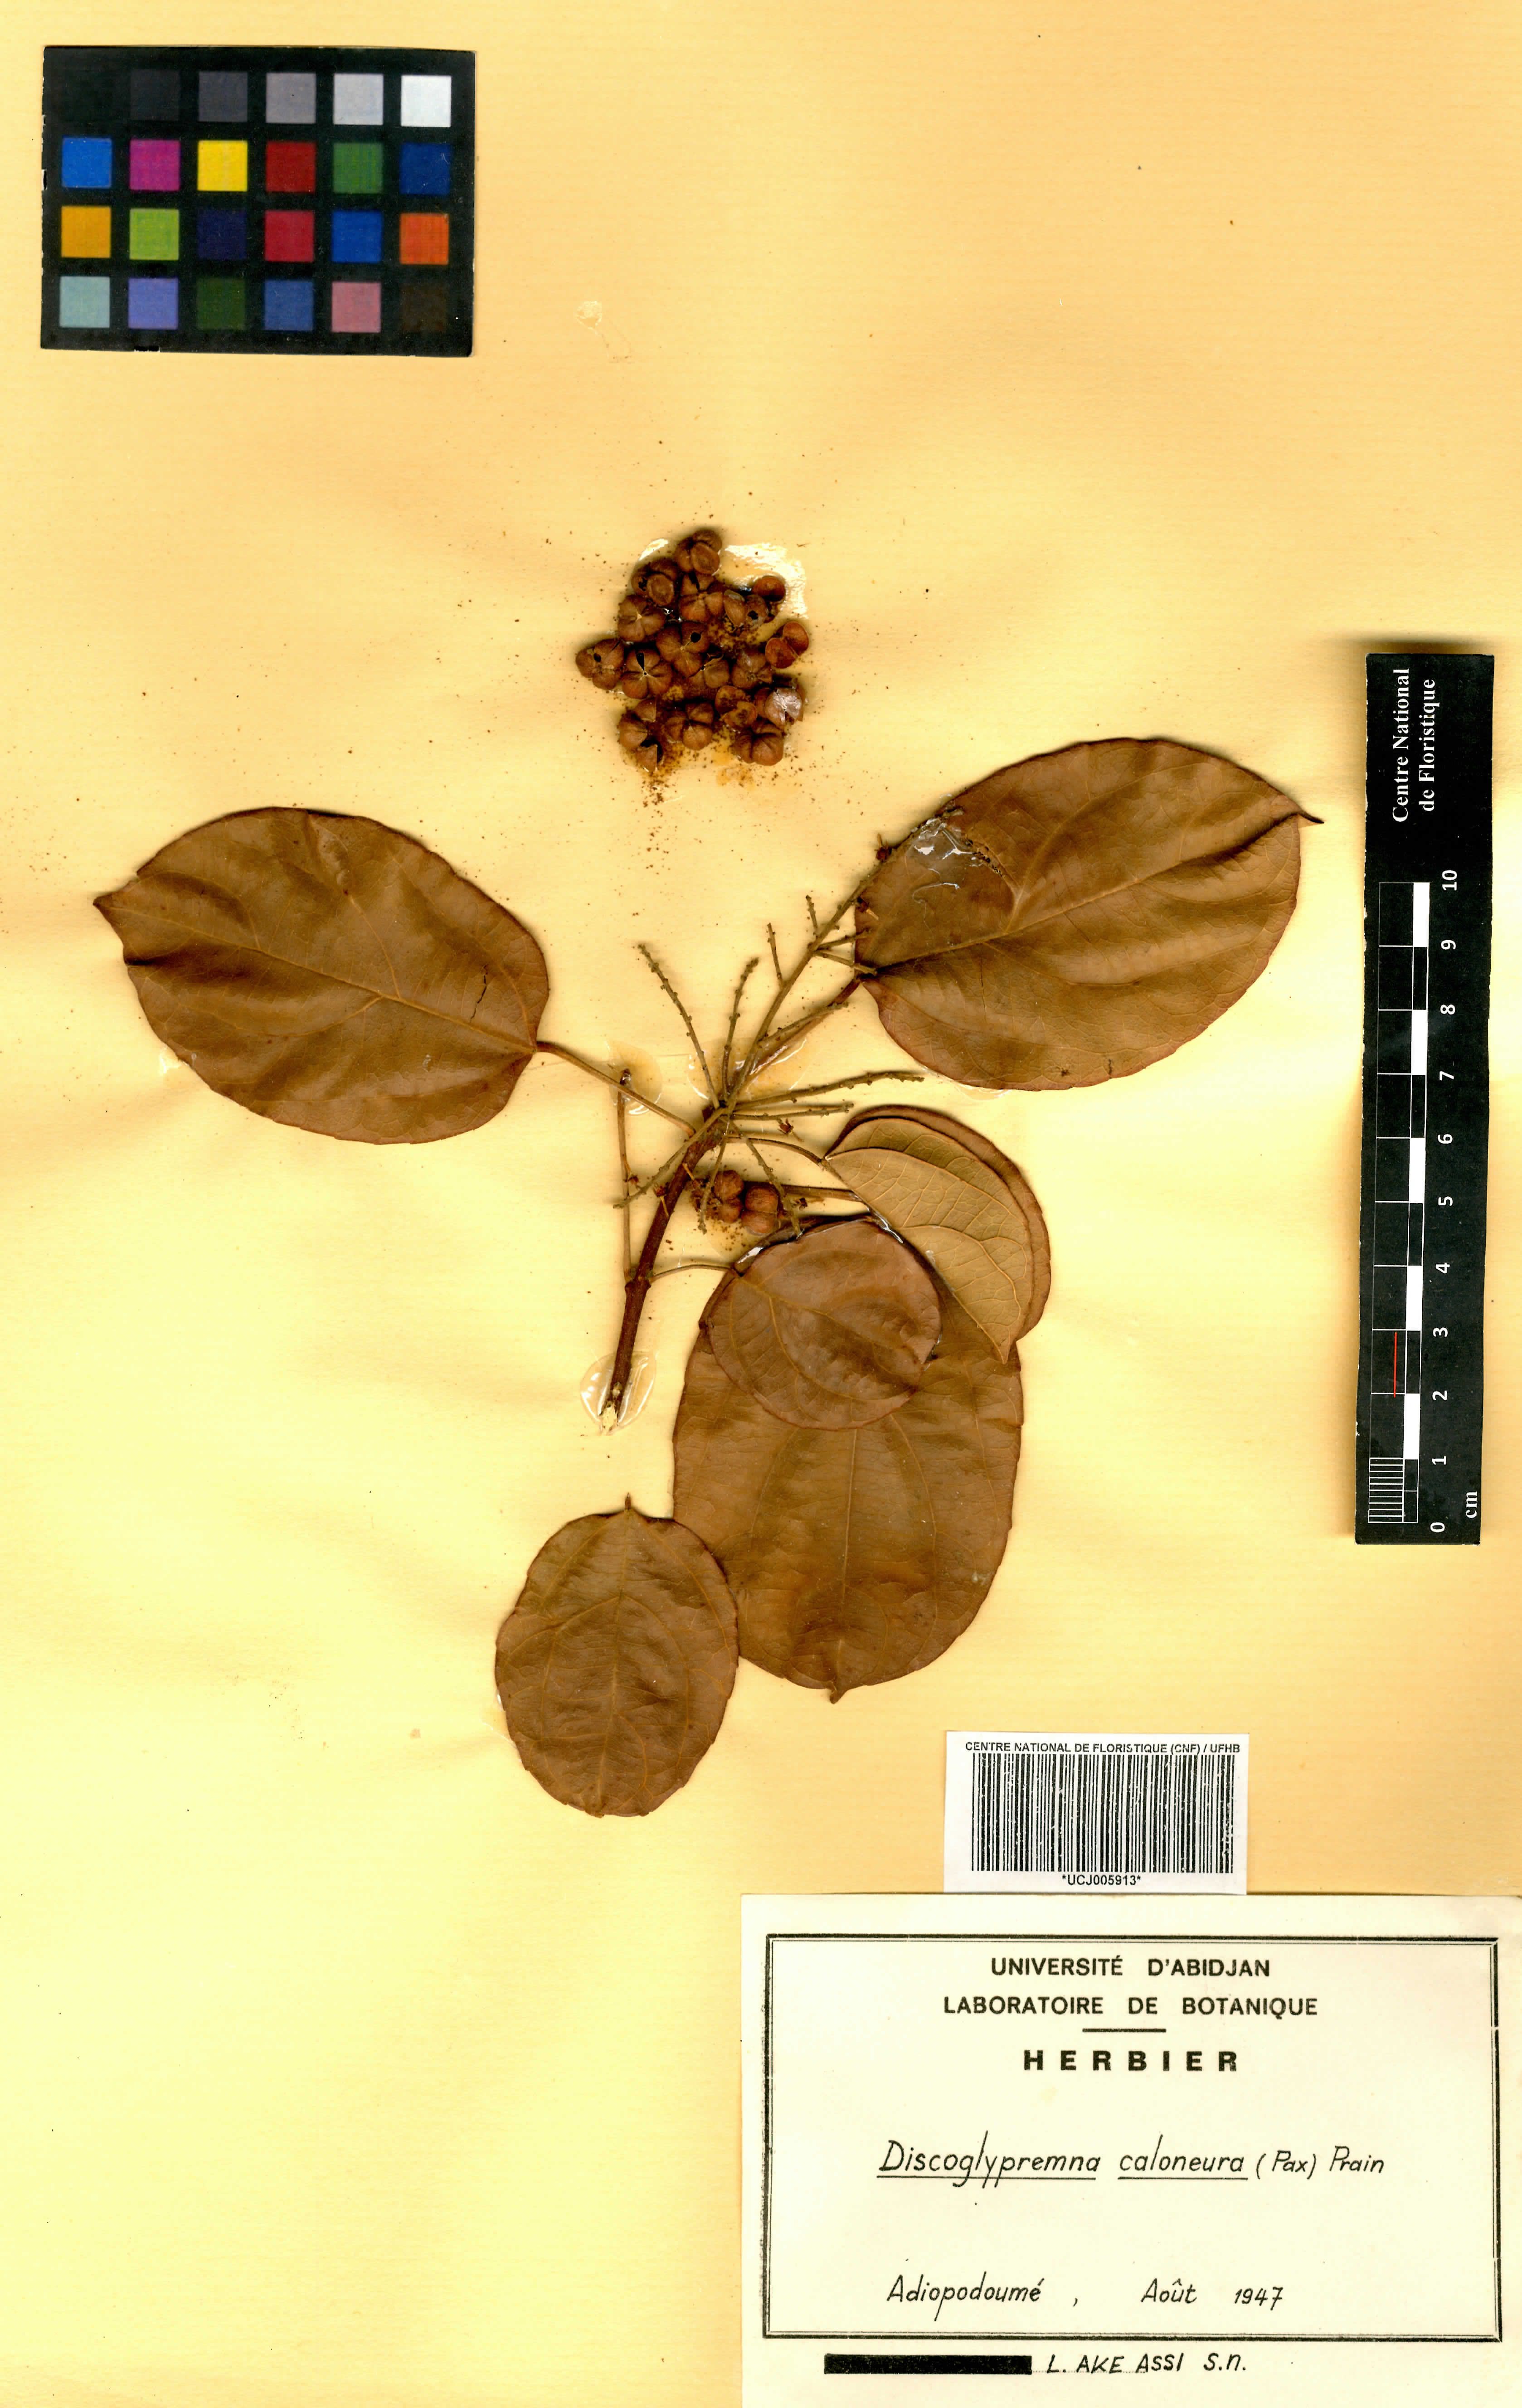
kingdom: Plantae
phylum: Tracheophyta
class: Magnoliopsida
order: Malpighiales
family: Euphorbiaceae
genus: Discoglypremna
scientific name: Discoglypremna caloneura
